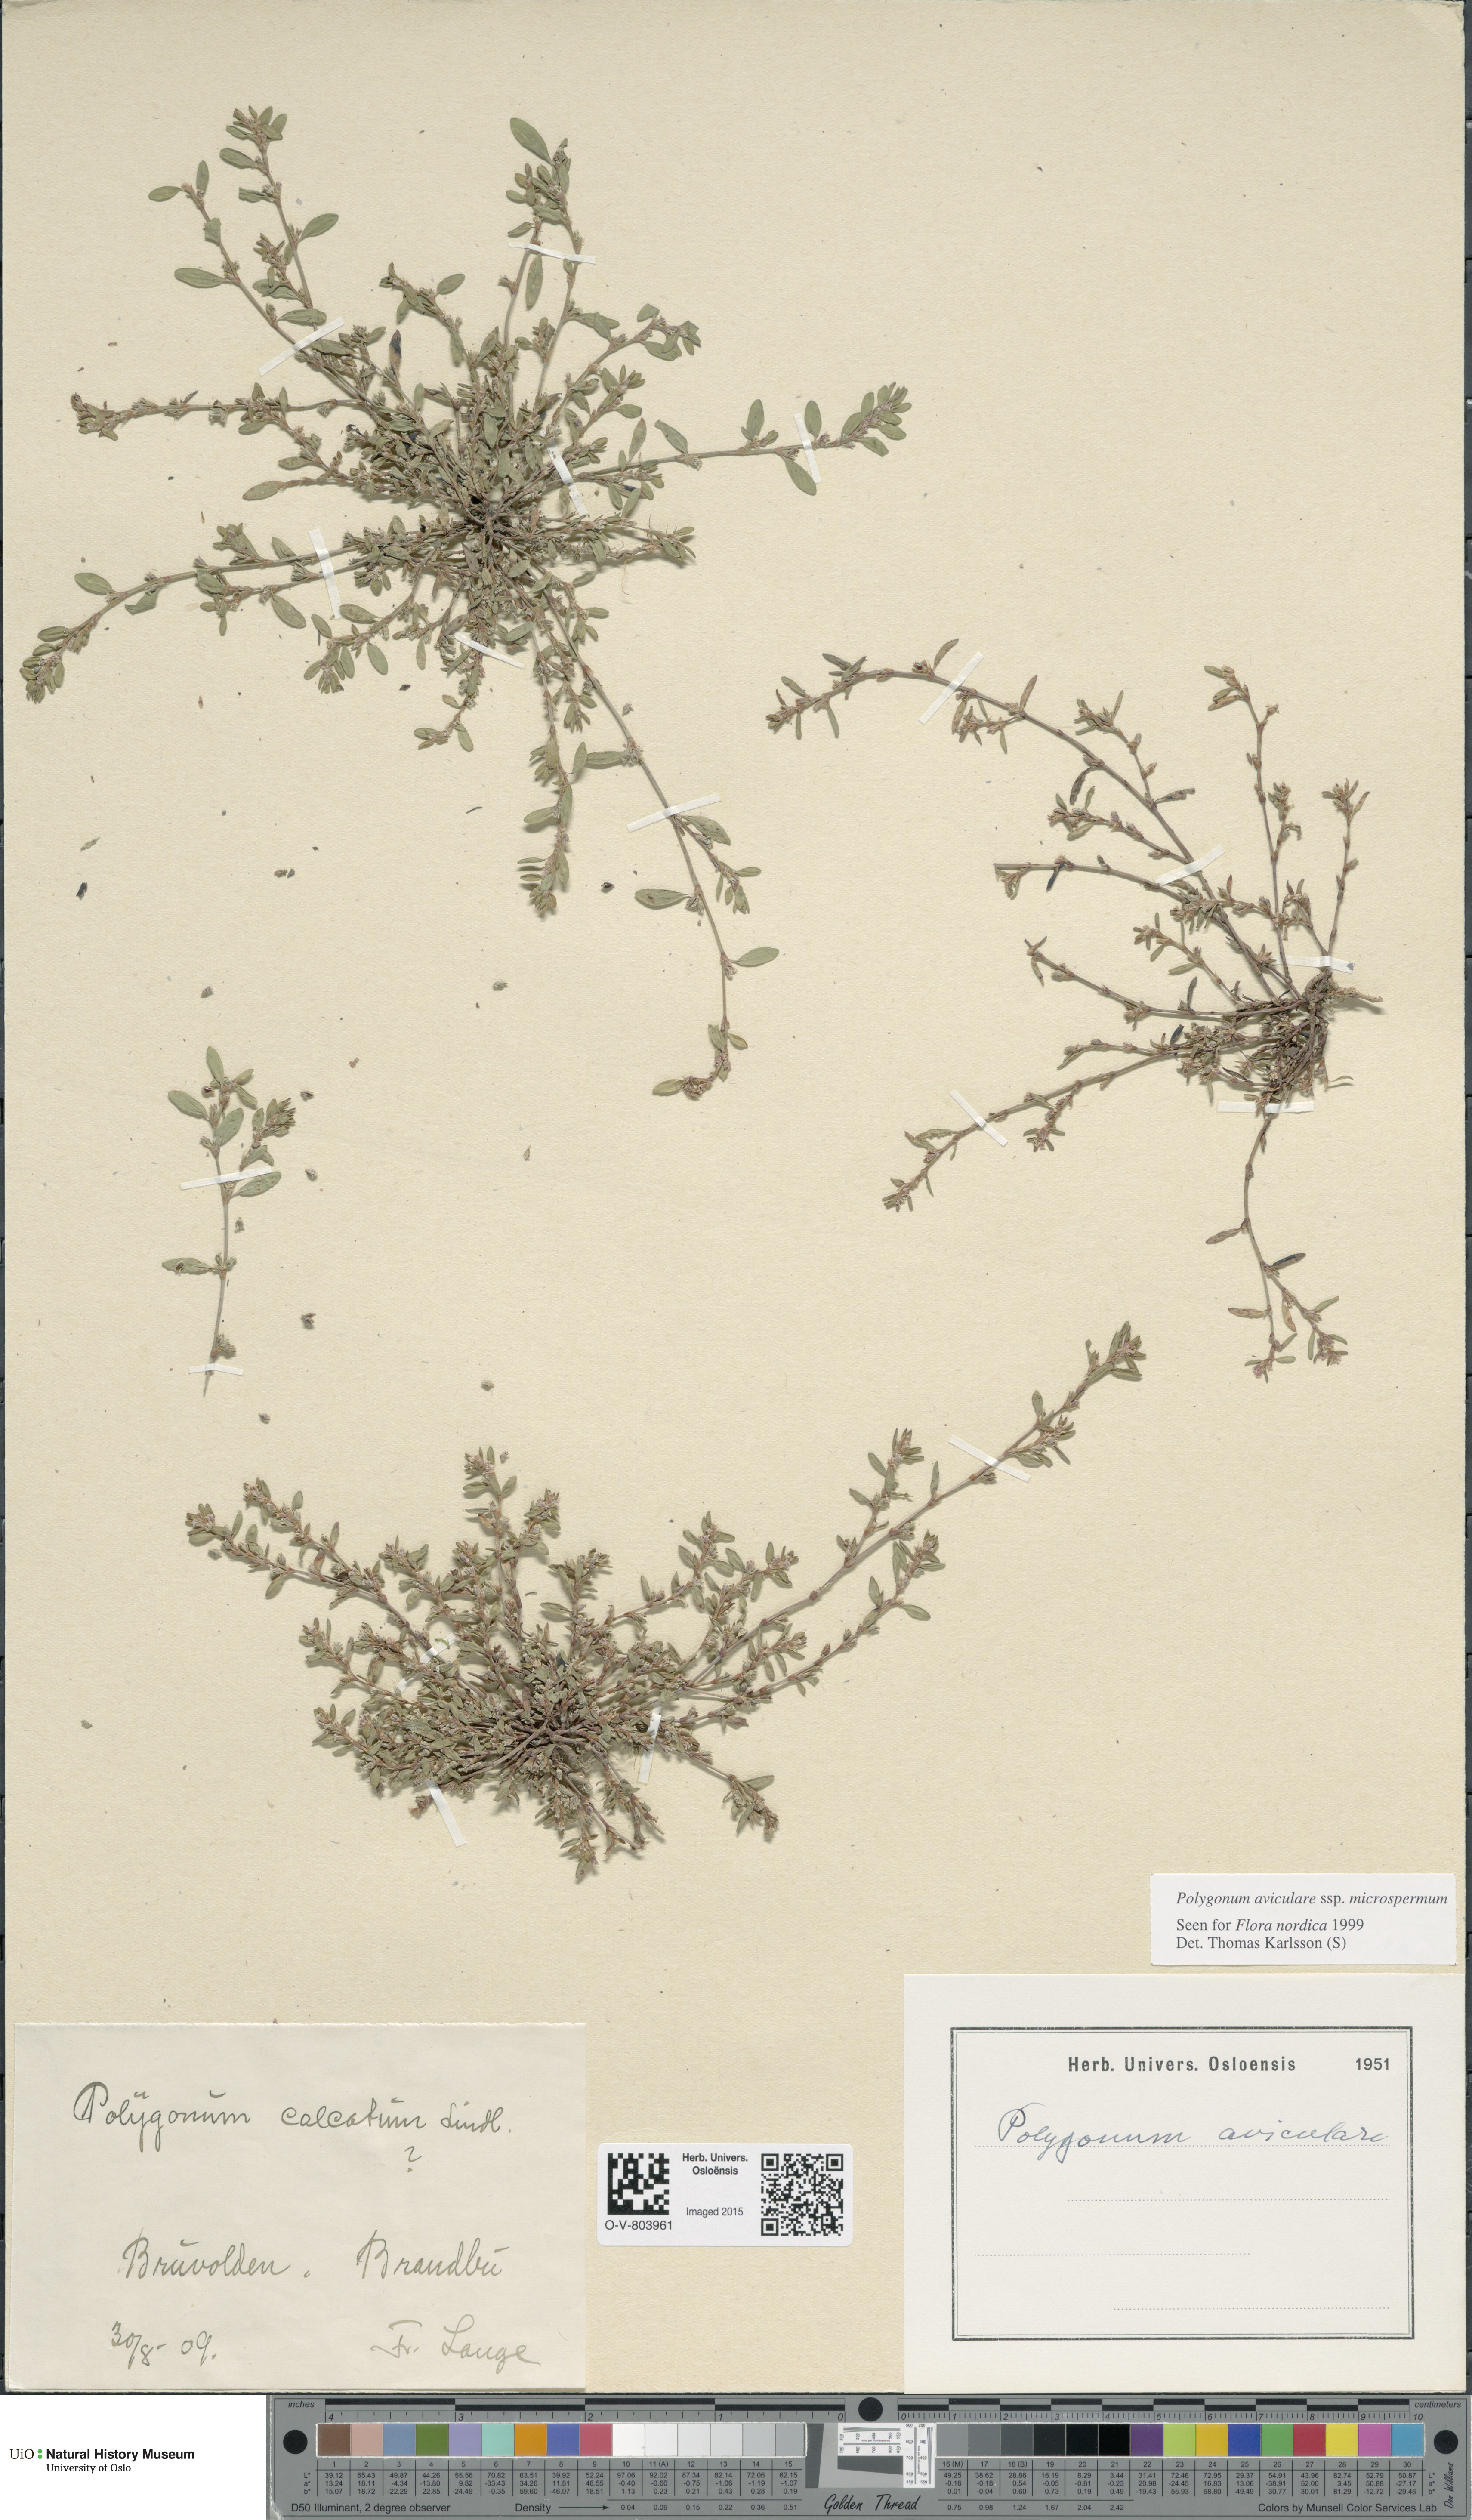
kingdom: Plantae
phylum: Tracheophyta
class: Magnoliopsida
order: Caryophyllales
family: Polygonaceae
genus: Polygonum
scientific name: Polygonum arenastrum
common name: Equal-leaved knotgrass
